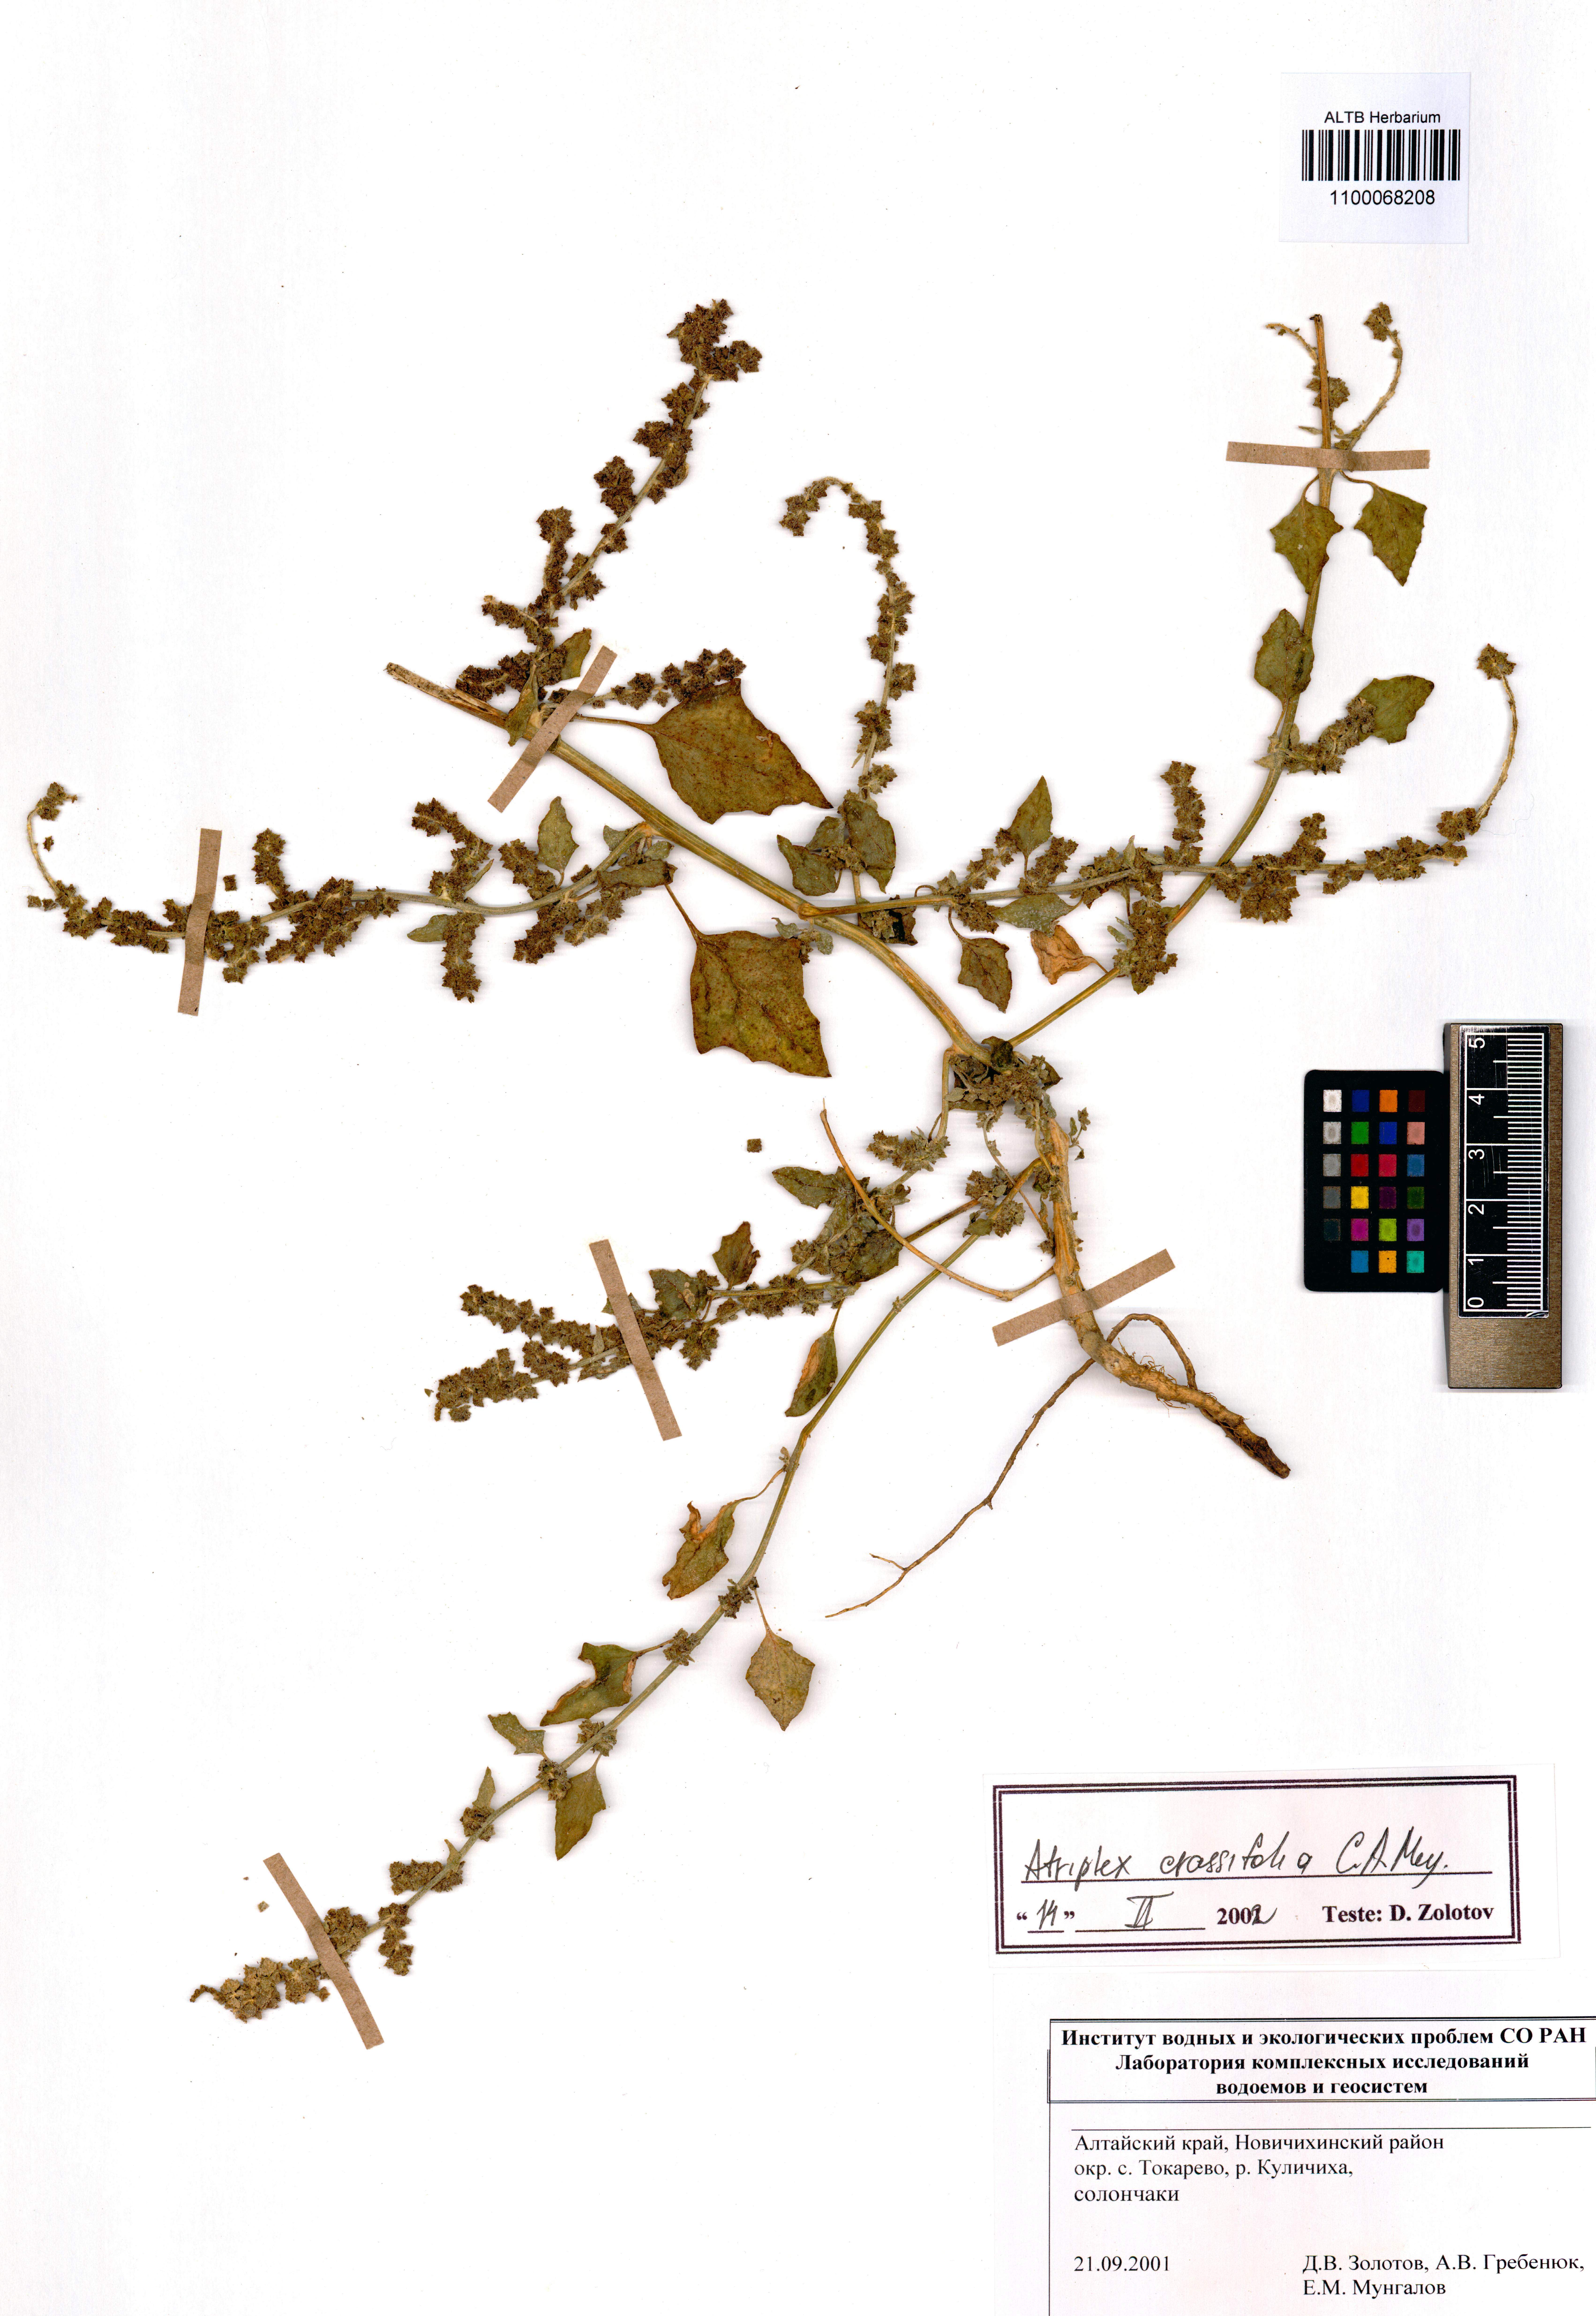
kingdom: Plantae
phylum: Tracheophyta
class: Magnoliopsida
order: Caryophyllales
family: Amaranthaceae
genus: Atriplex
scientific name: Atriplex crassifolia
